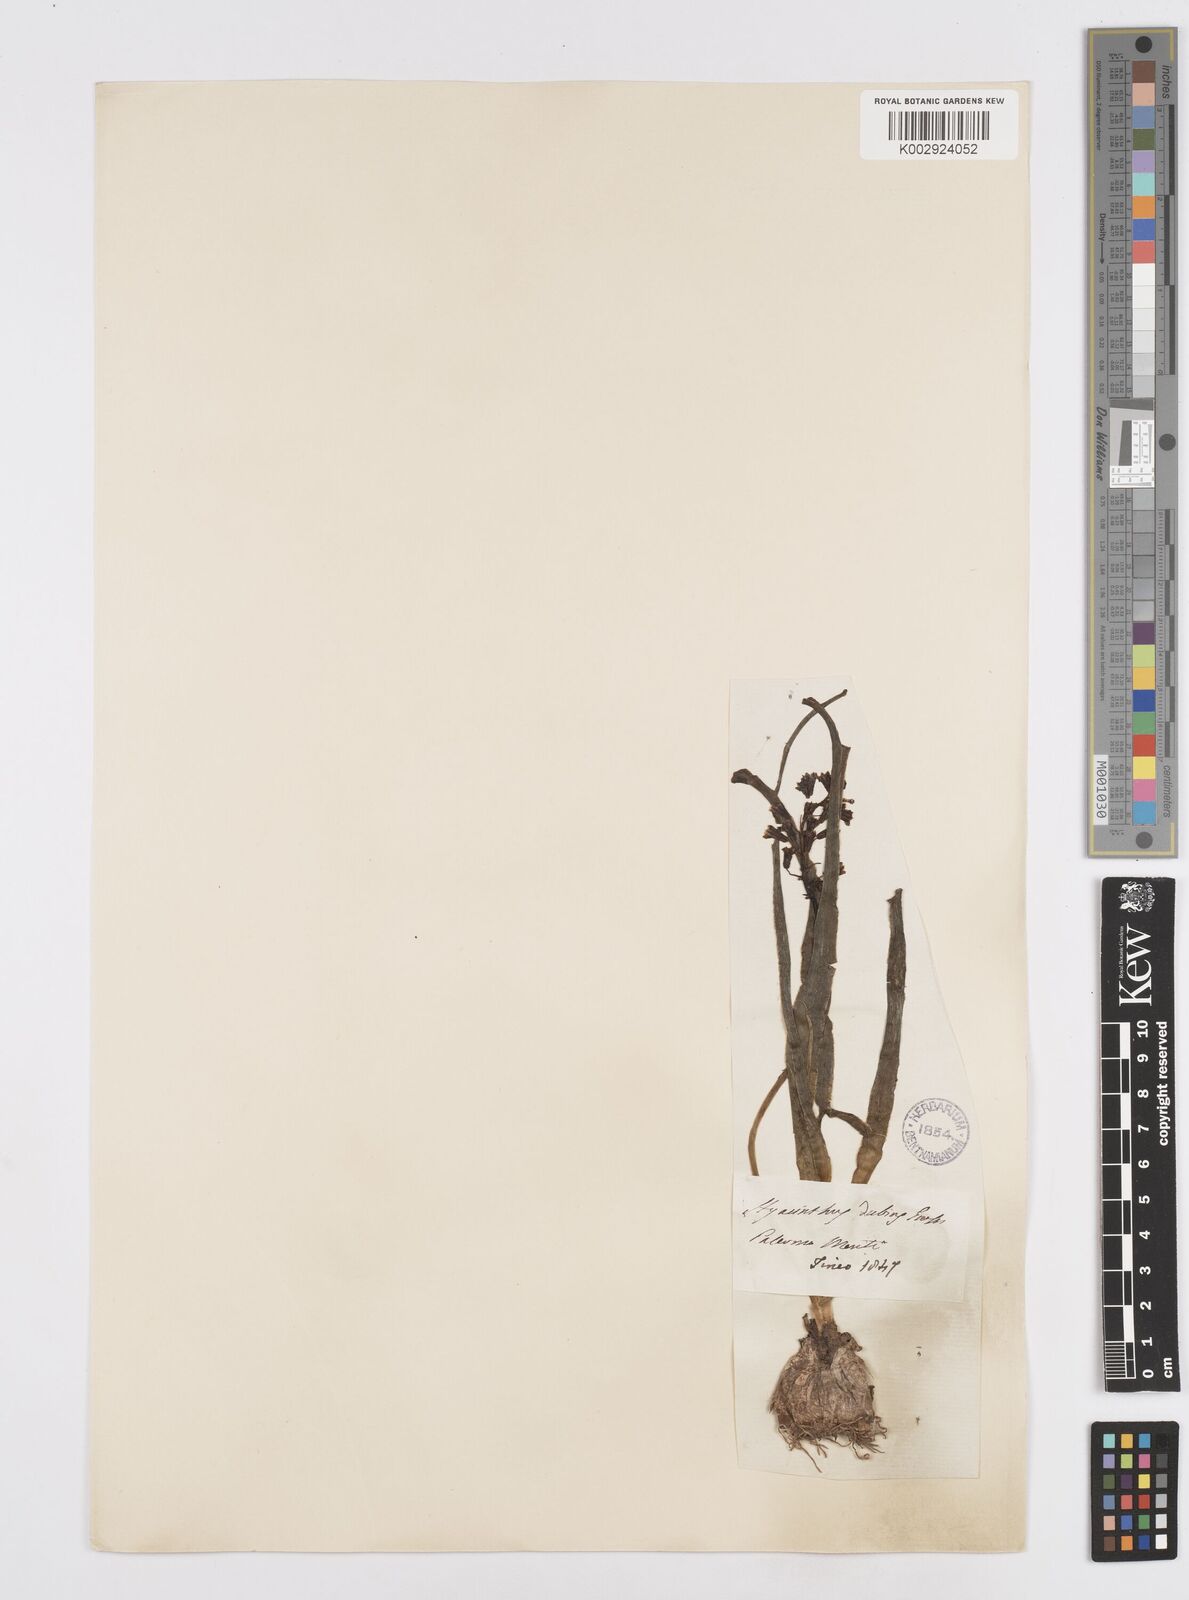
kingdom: Plantae
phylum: Tracheophyta
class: Liliopsida
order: Asparagales
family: Asparagaceae
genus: Bellevalia
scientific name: Bellevalia dubia
